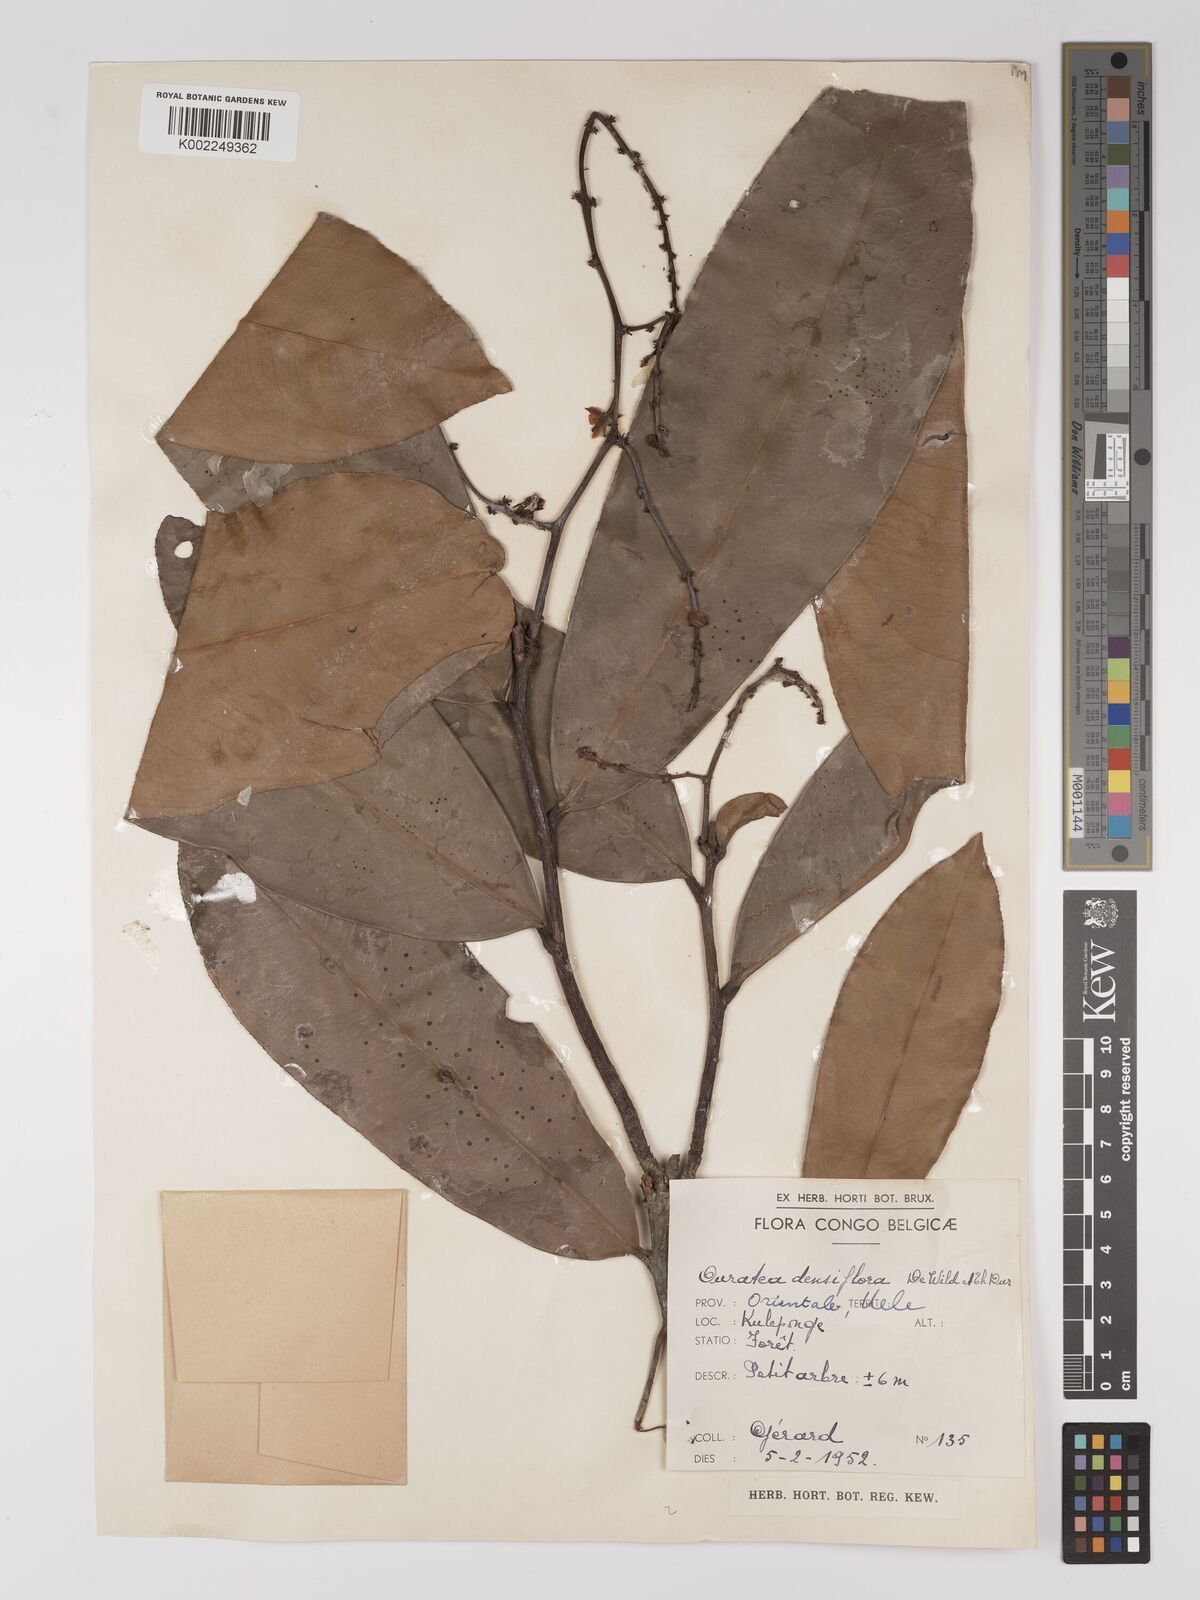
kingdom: Plantae
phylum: Tracheophyta
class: Magnoliopsida
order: Malpighiales
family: Ochnaceae
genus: Gomphia
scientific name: Gomphia densiflora
